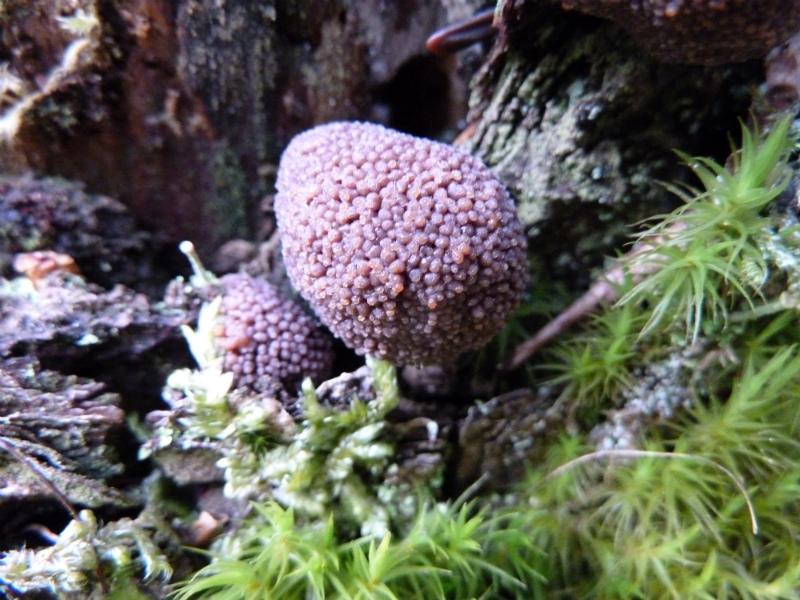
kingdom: Protozoa
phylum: Mycetozoa
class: Myxomycetes
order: Cribrariales
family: Tubiferaceae
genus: Tubifera
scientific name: Tubifera ferruginosa
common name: kanel-støvrør
